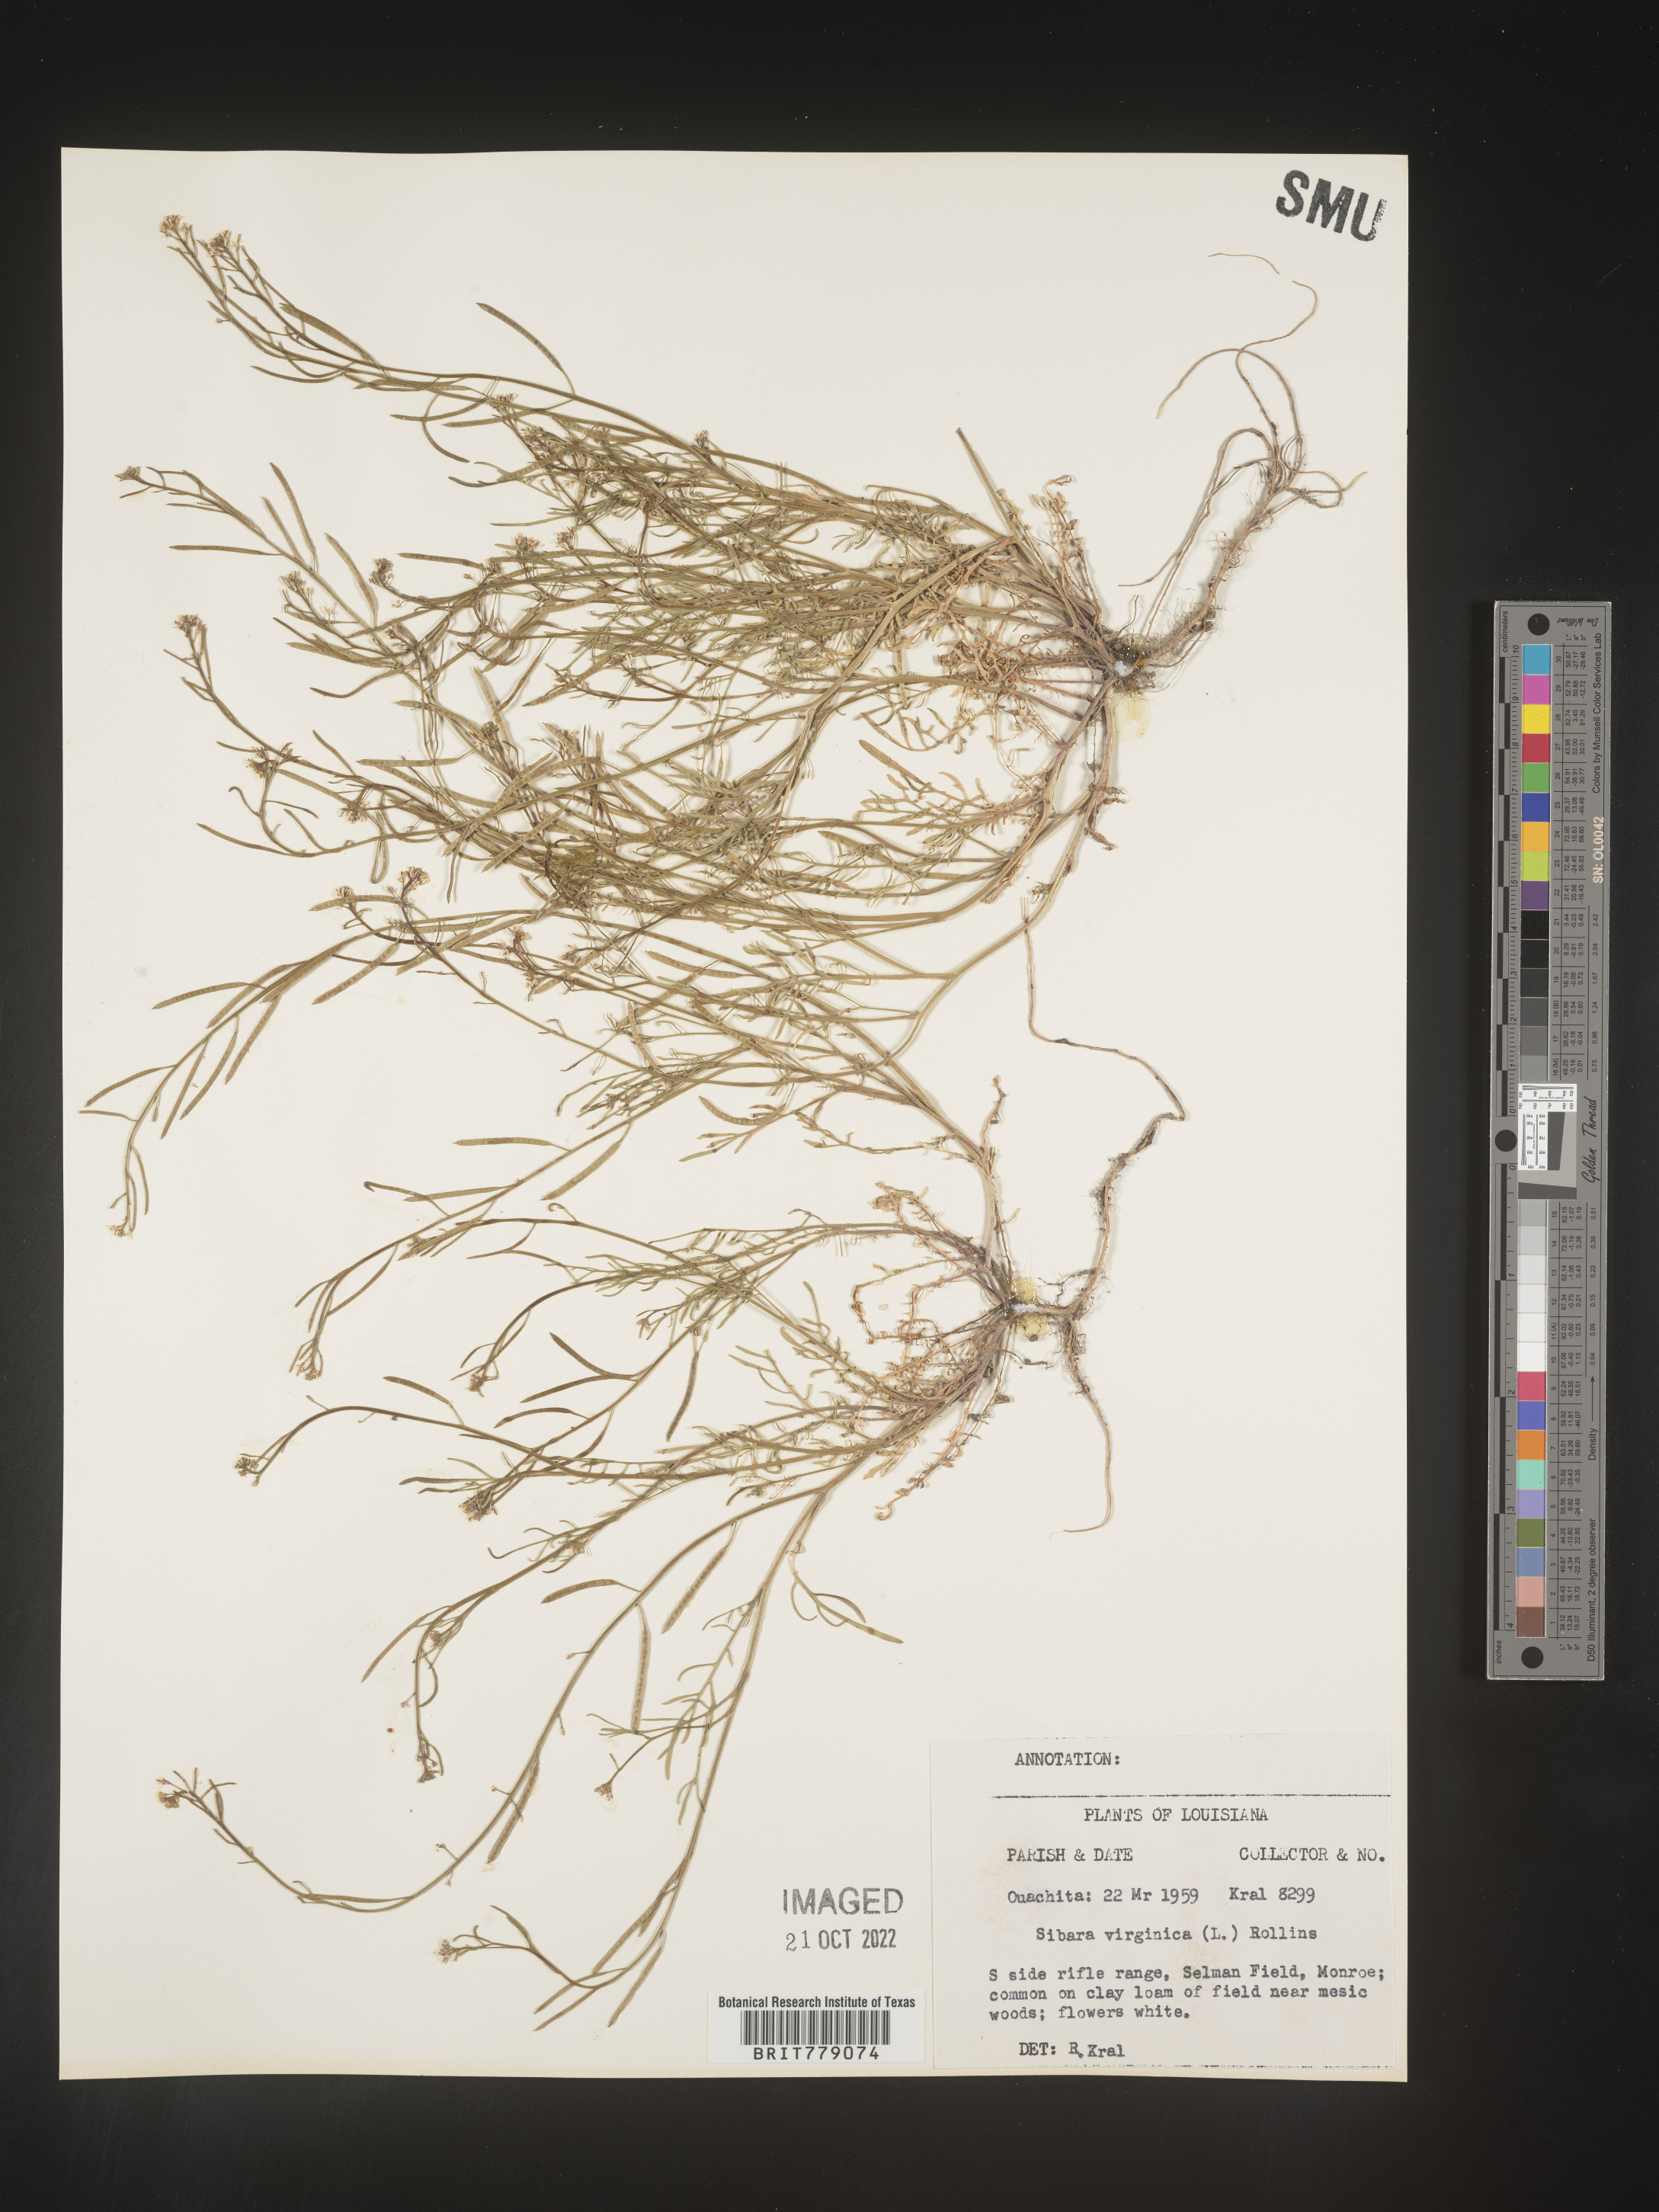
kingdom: Plantae
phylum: Tracheophyta
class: Magnoliopsida
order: Brassicales
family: Brassicaceae
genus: Sibara
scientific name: Sibara
